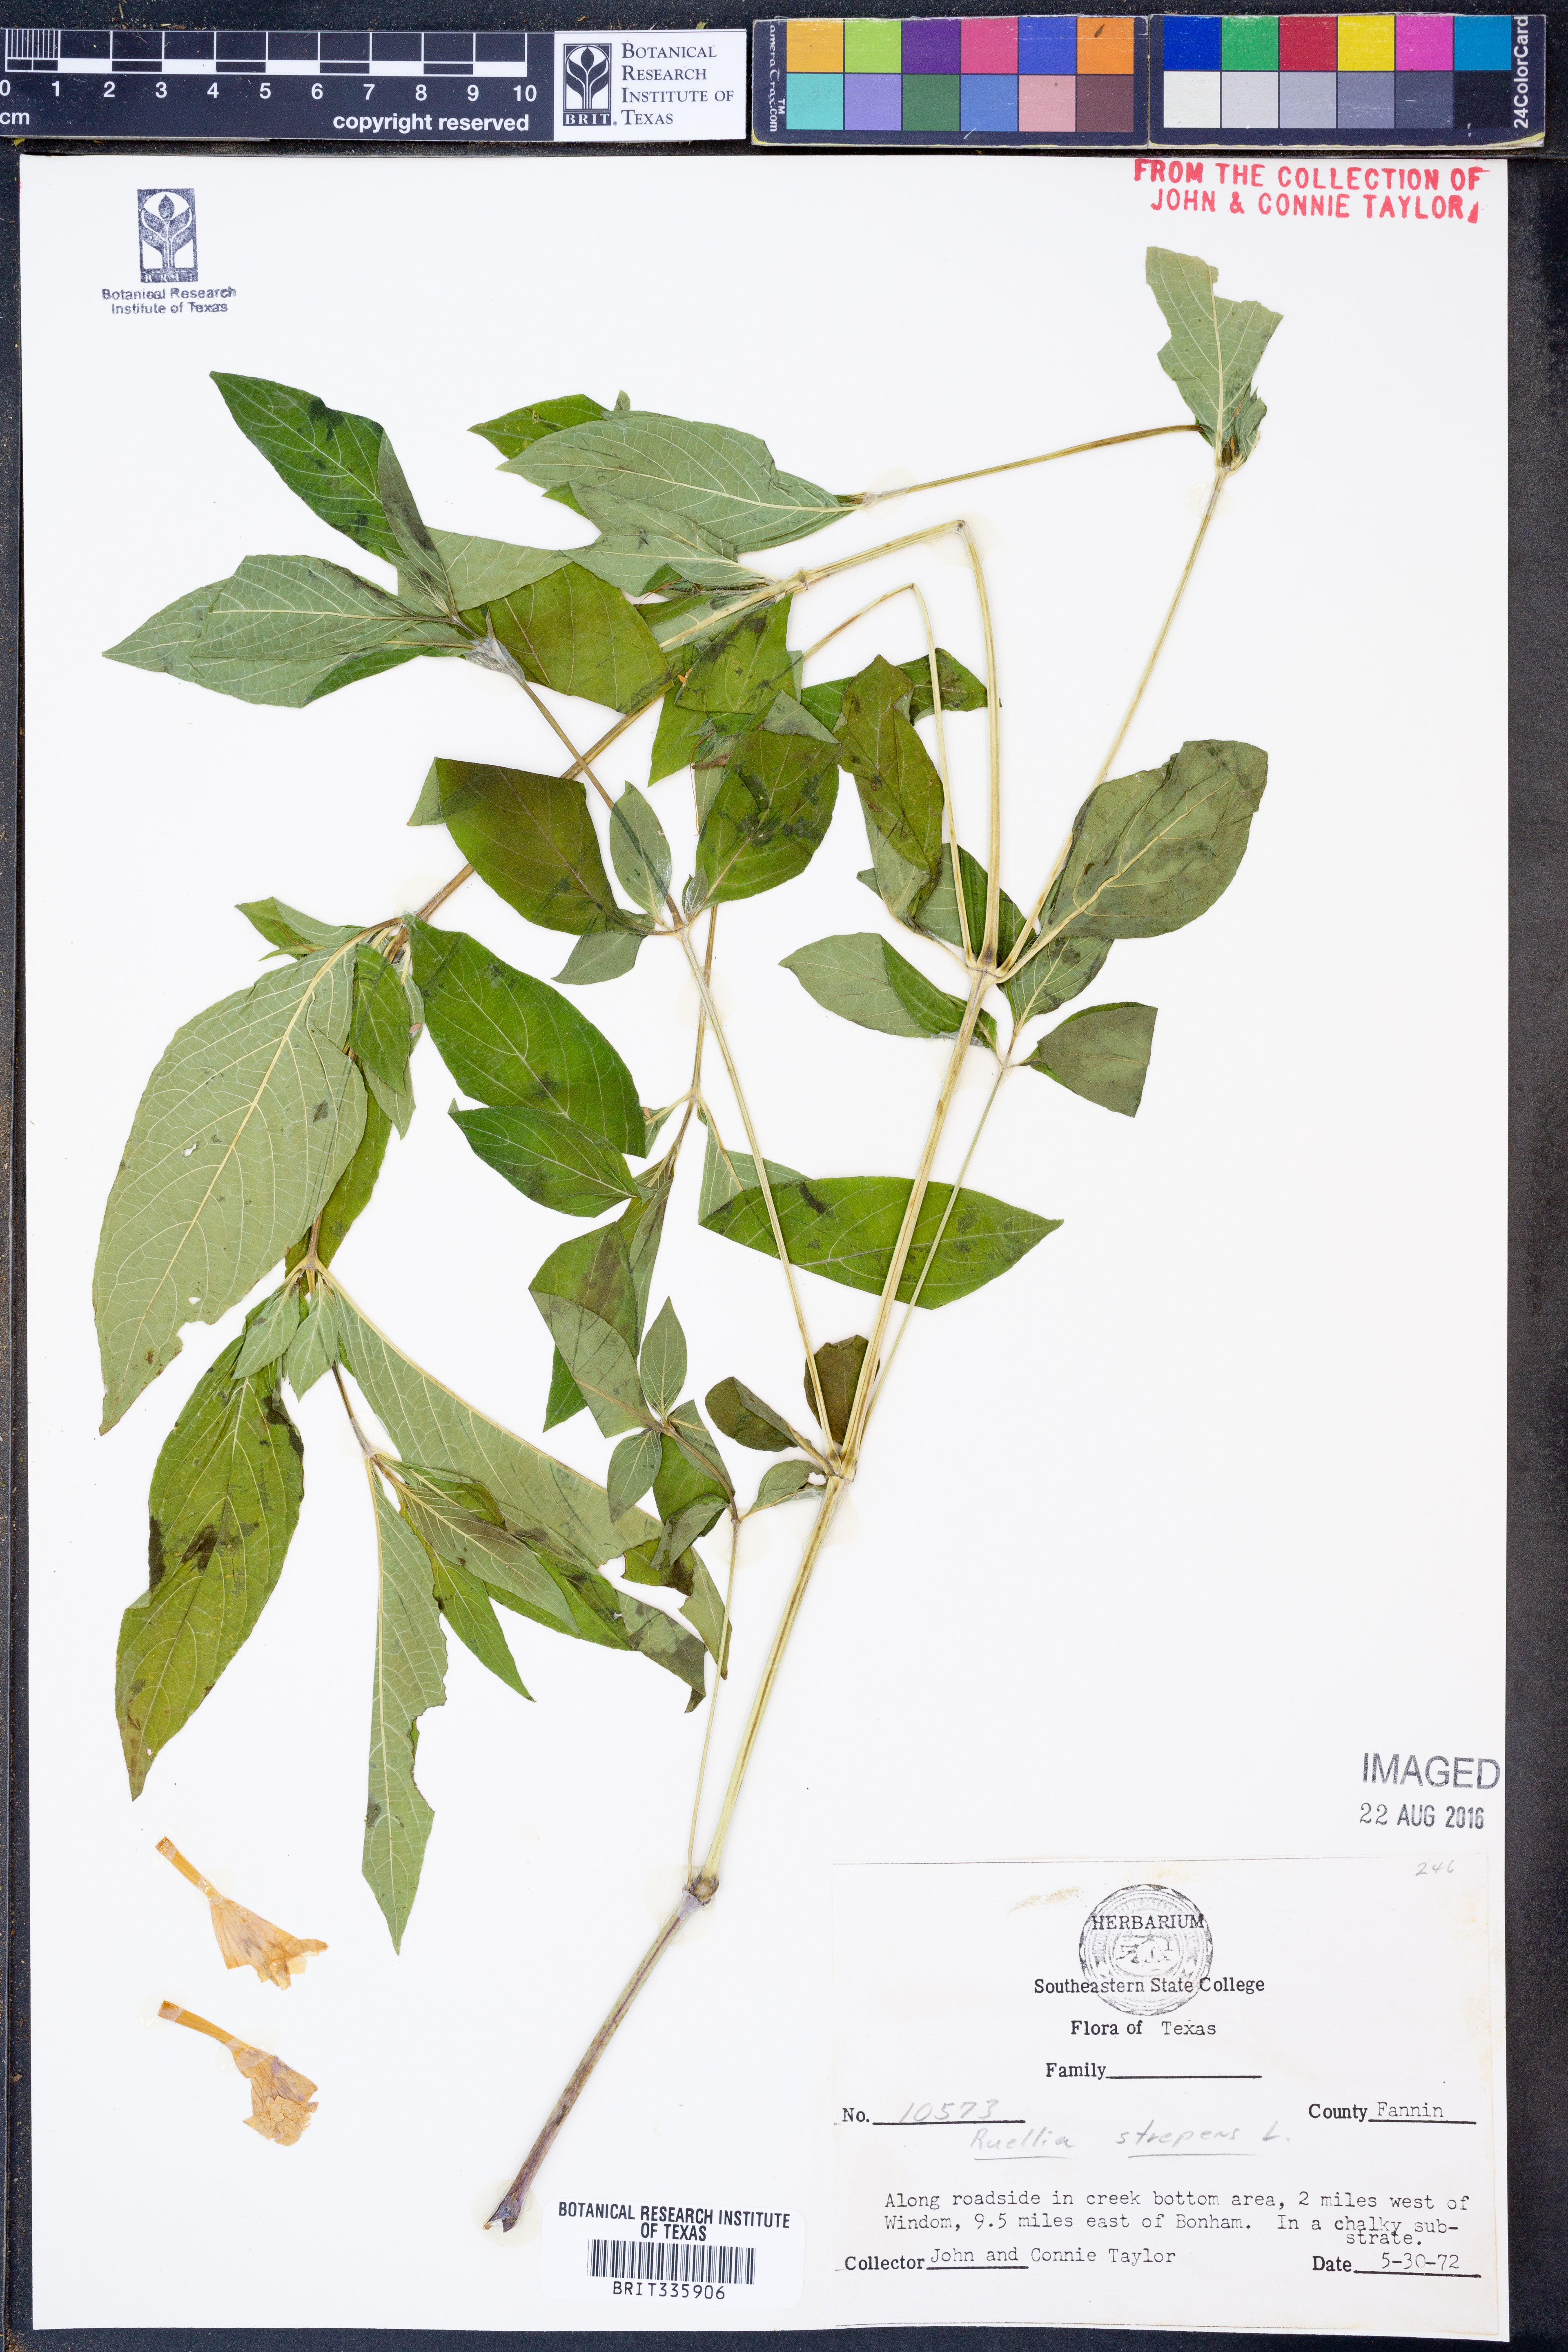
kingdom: Plantae
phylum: Tracheophyta
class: Magnoliopsida
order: Lamiales
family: Acanthaceae
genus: Ruellia
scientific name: Ruellia strepens
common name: Limestone wild petunia
